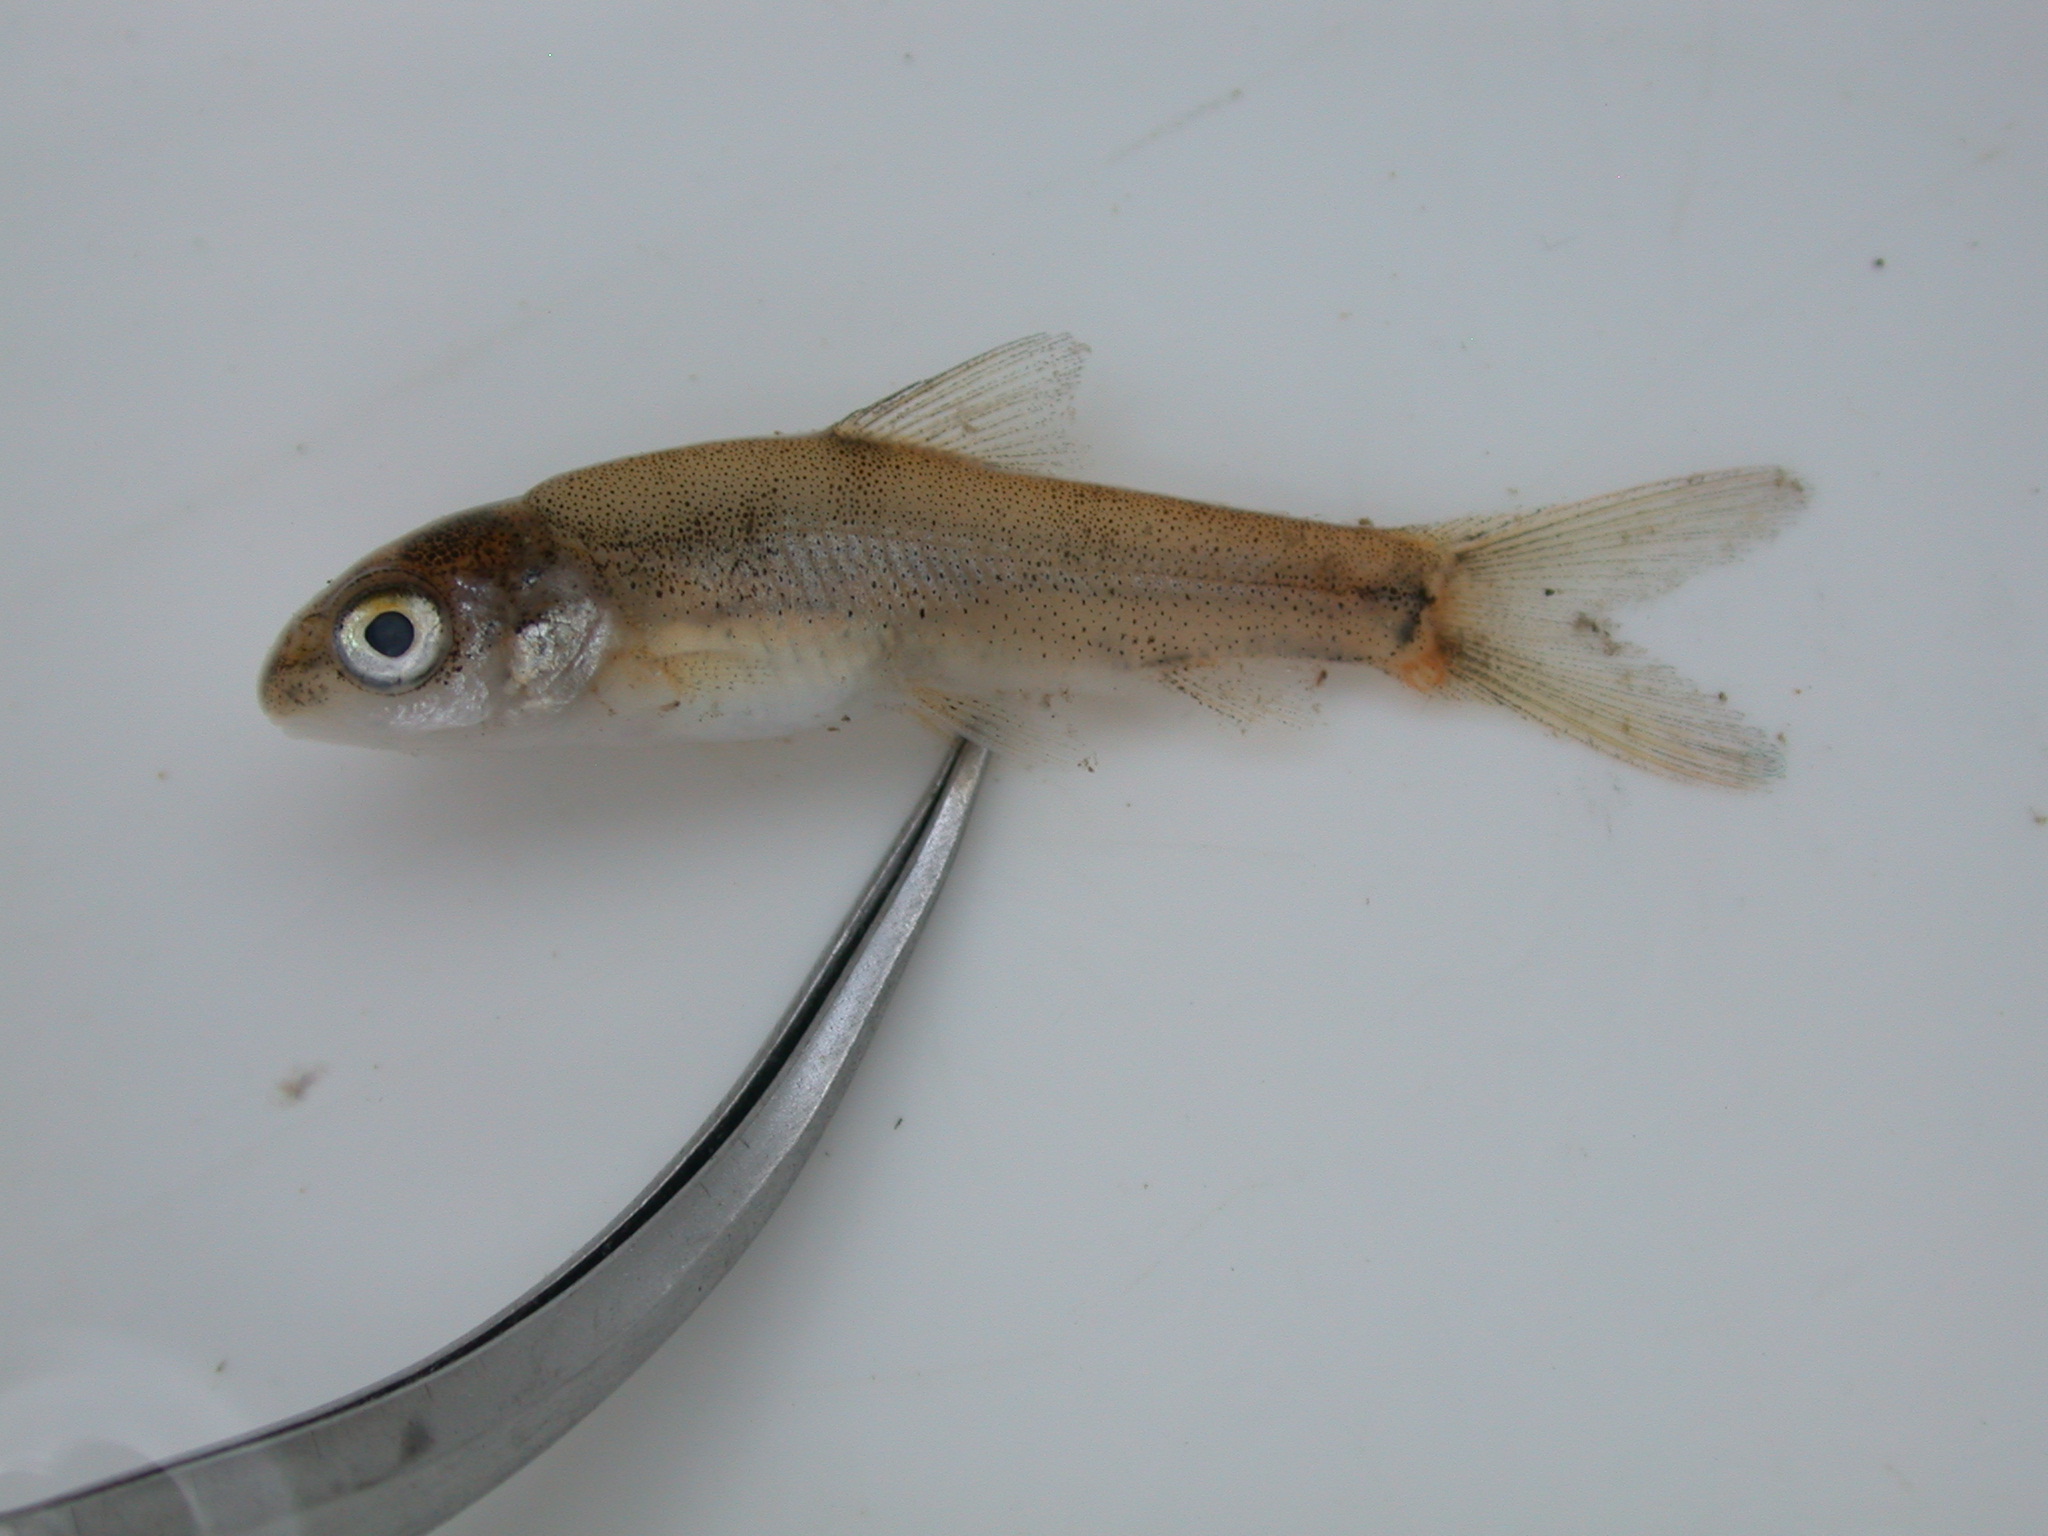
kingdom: Animalia
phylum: Chordata
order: Cypriniformes
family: Cyprinidae
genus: Labeobarbus
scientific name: Labeobarbus marequensis
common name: Largescale yellowfish
